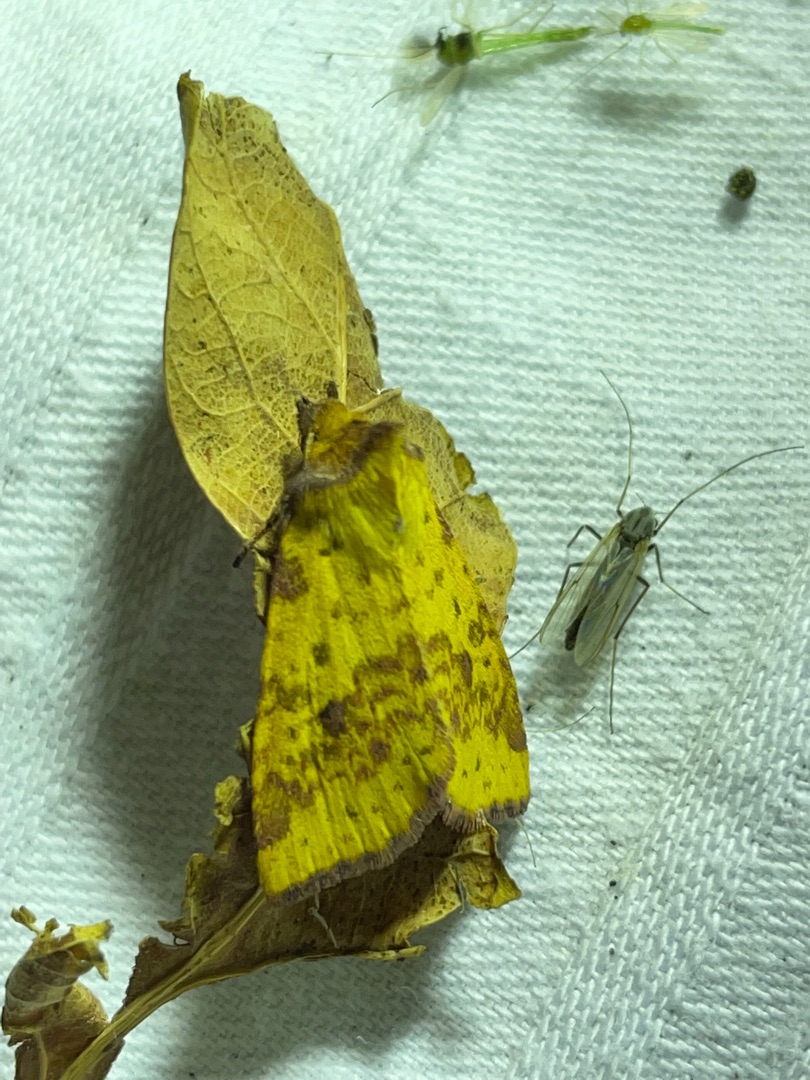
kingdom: Animalia
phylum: Arthropoda
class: Insecta
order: Lepidoptera
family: Noctuidae
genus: Xanthia
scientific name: Xanthia togata
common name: Toga-septemberugle
